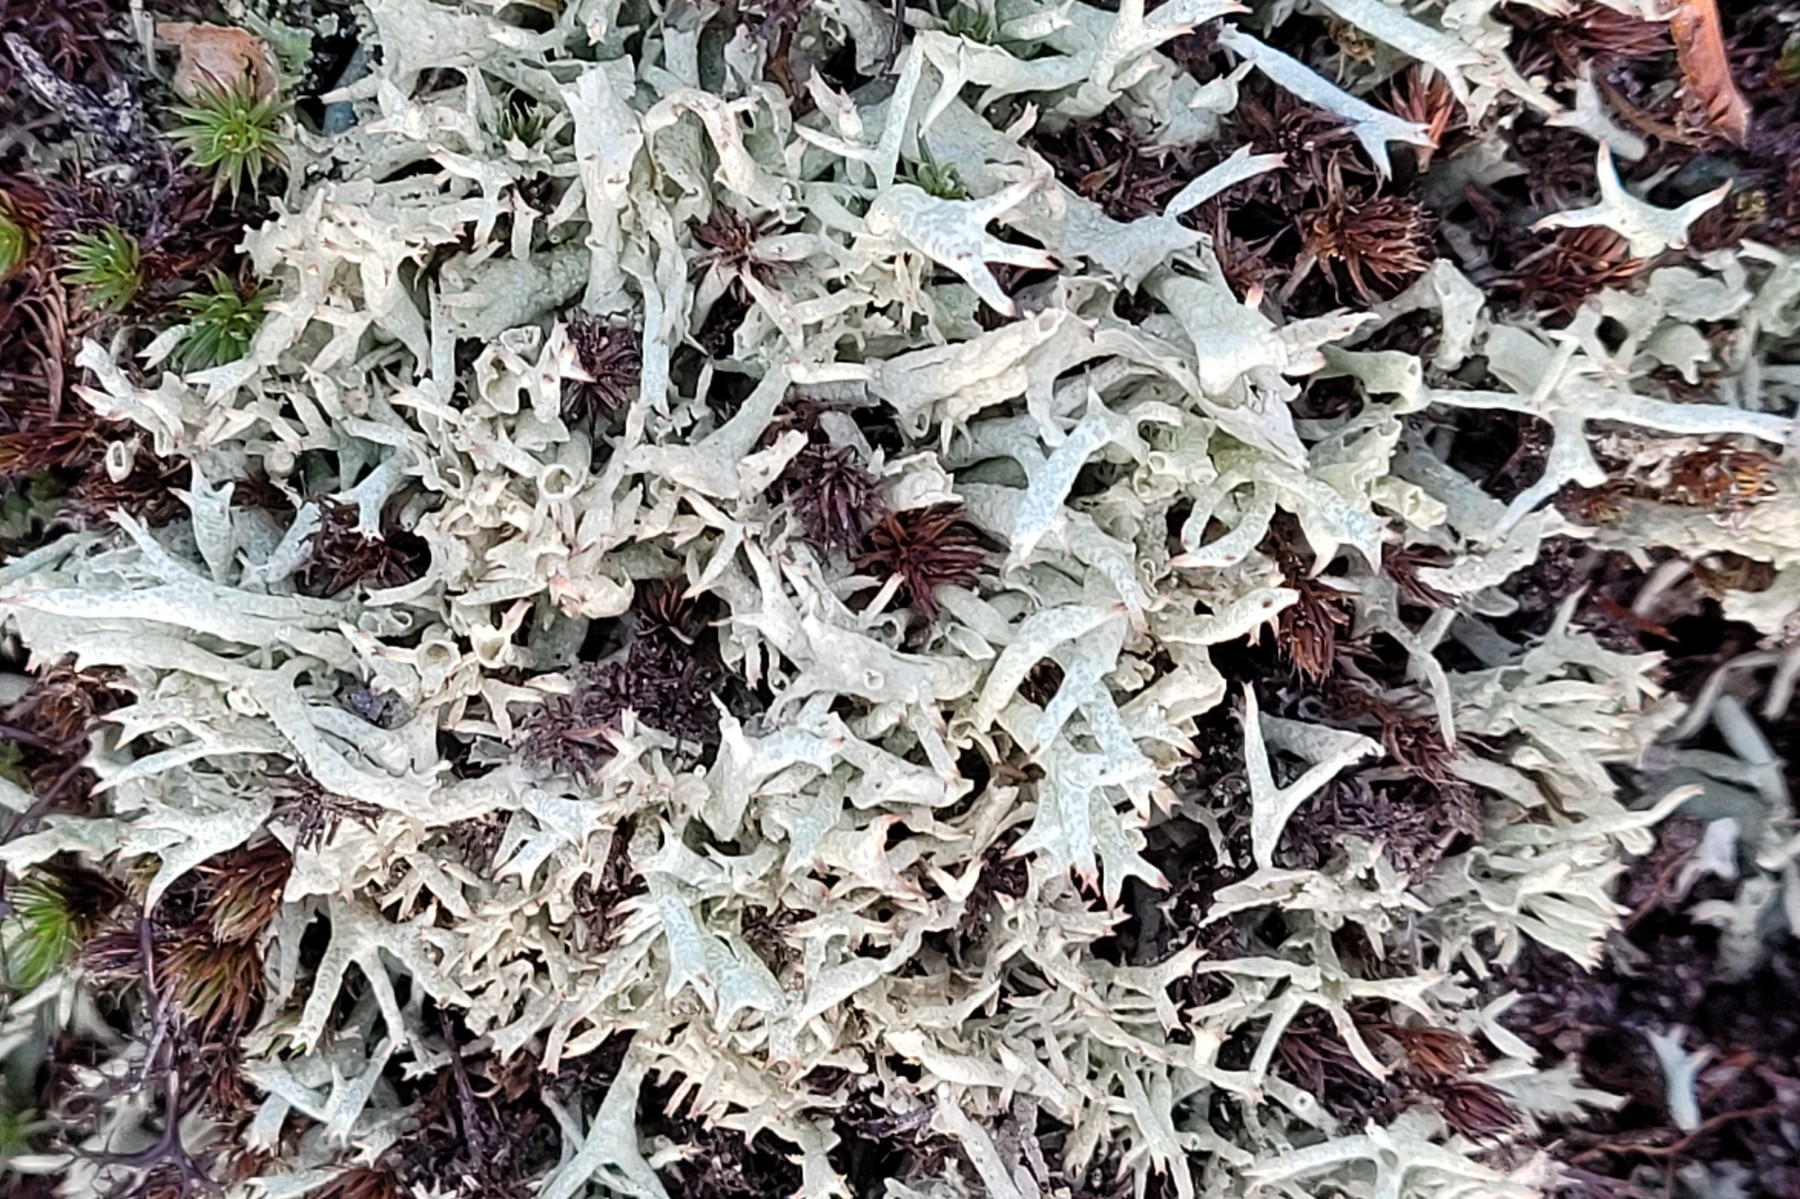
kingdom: Fungi
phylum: Ascomycota
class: Lecanoromycetes
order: Lecanorales
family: Cladoniaceae
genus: Cladonia
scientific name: Cladonia uncialis
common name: pigget bægerlav
